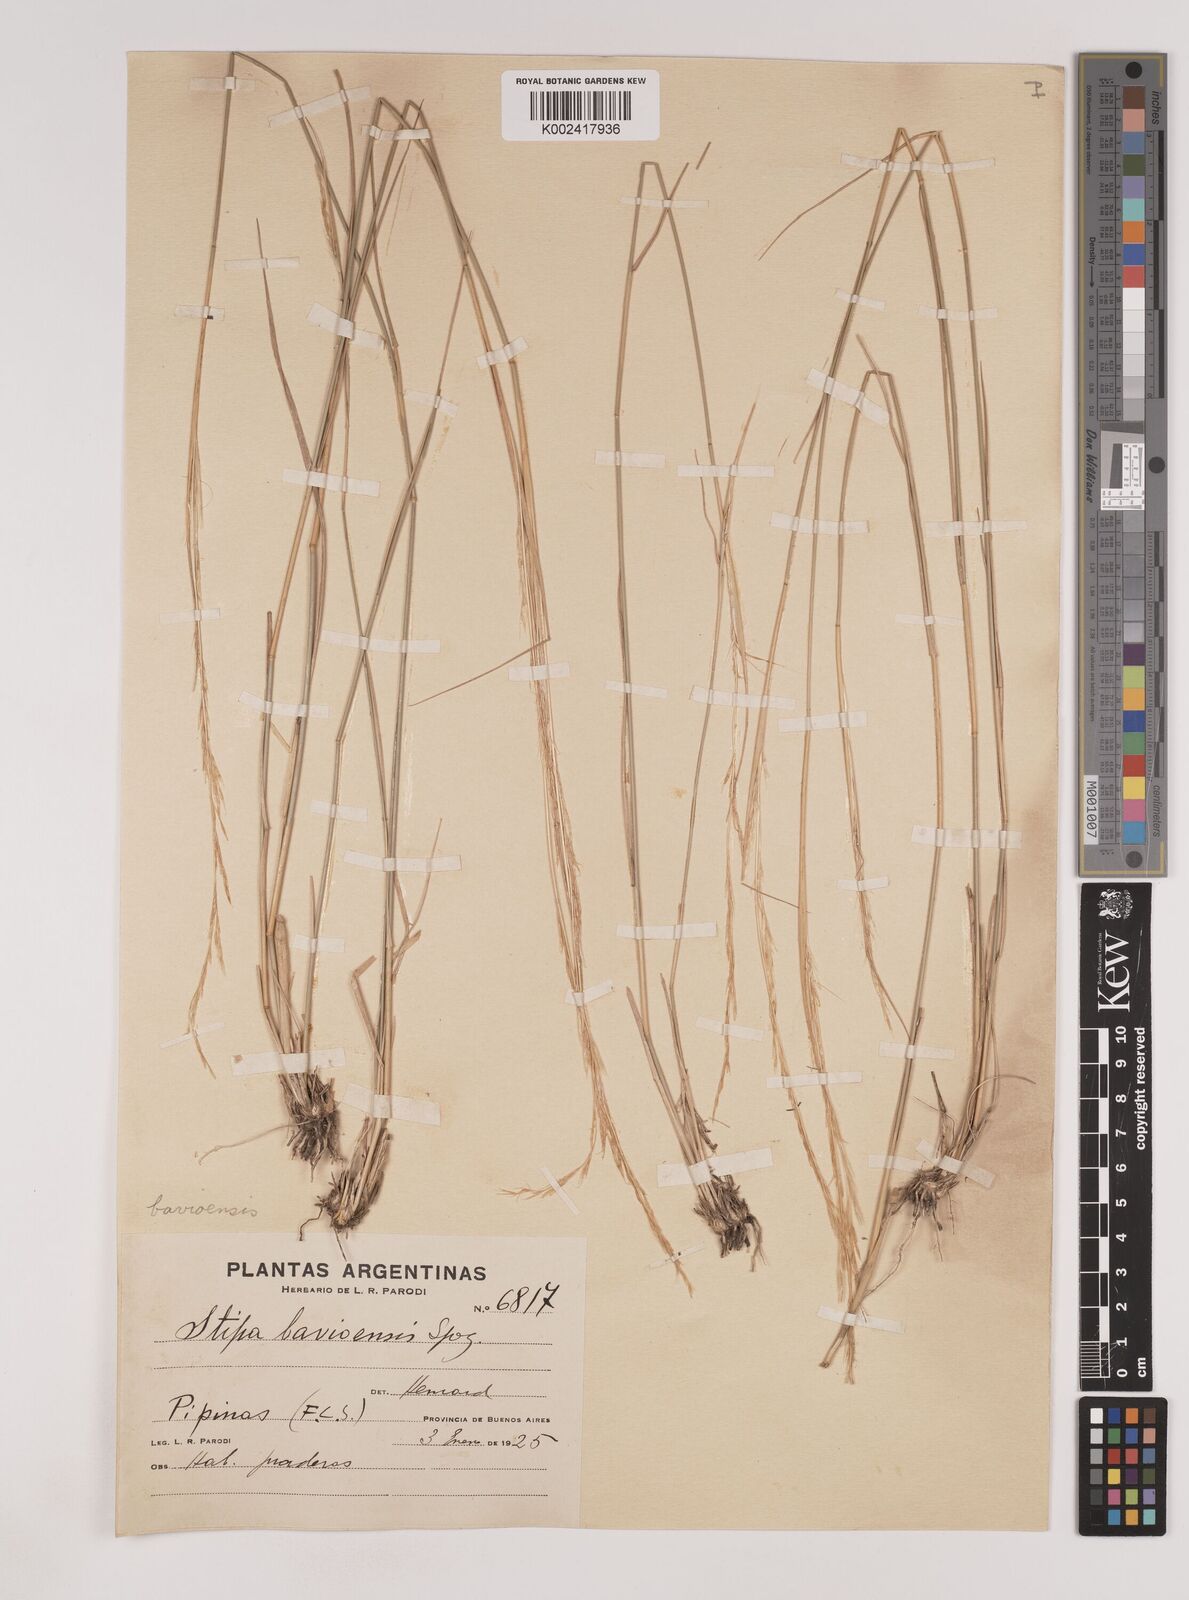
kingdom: Plantae
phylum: Tracheophyta
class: Liliopsida
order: Poales
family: Poaceae
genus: Nassella
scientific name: Nassella philippii
